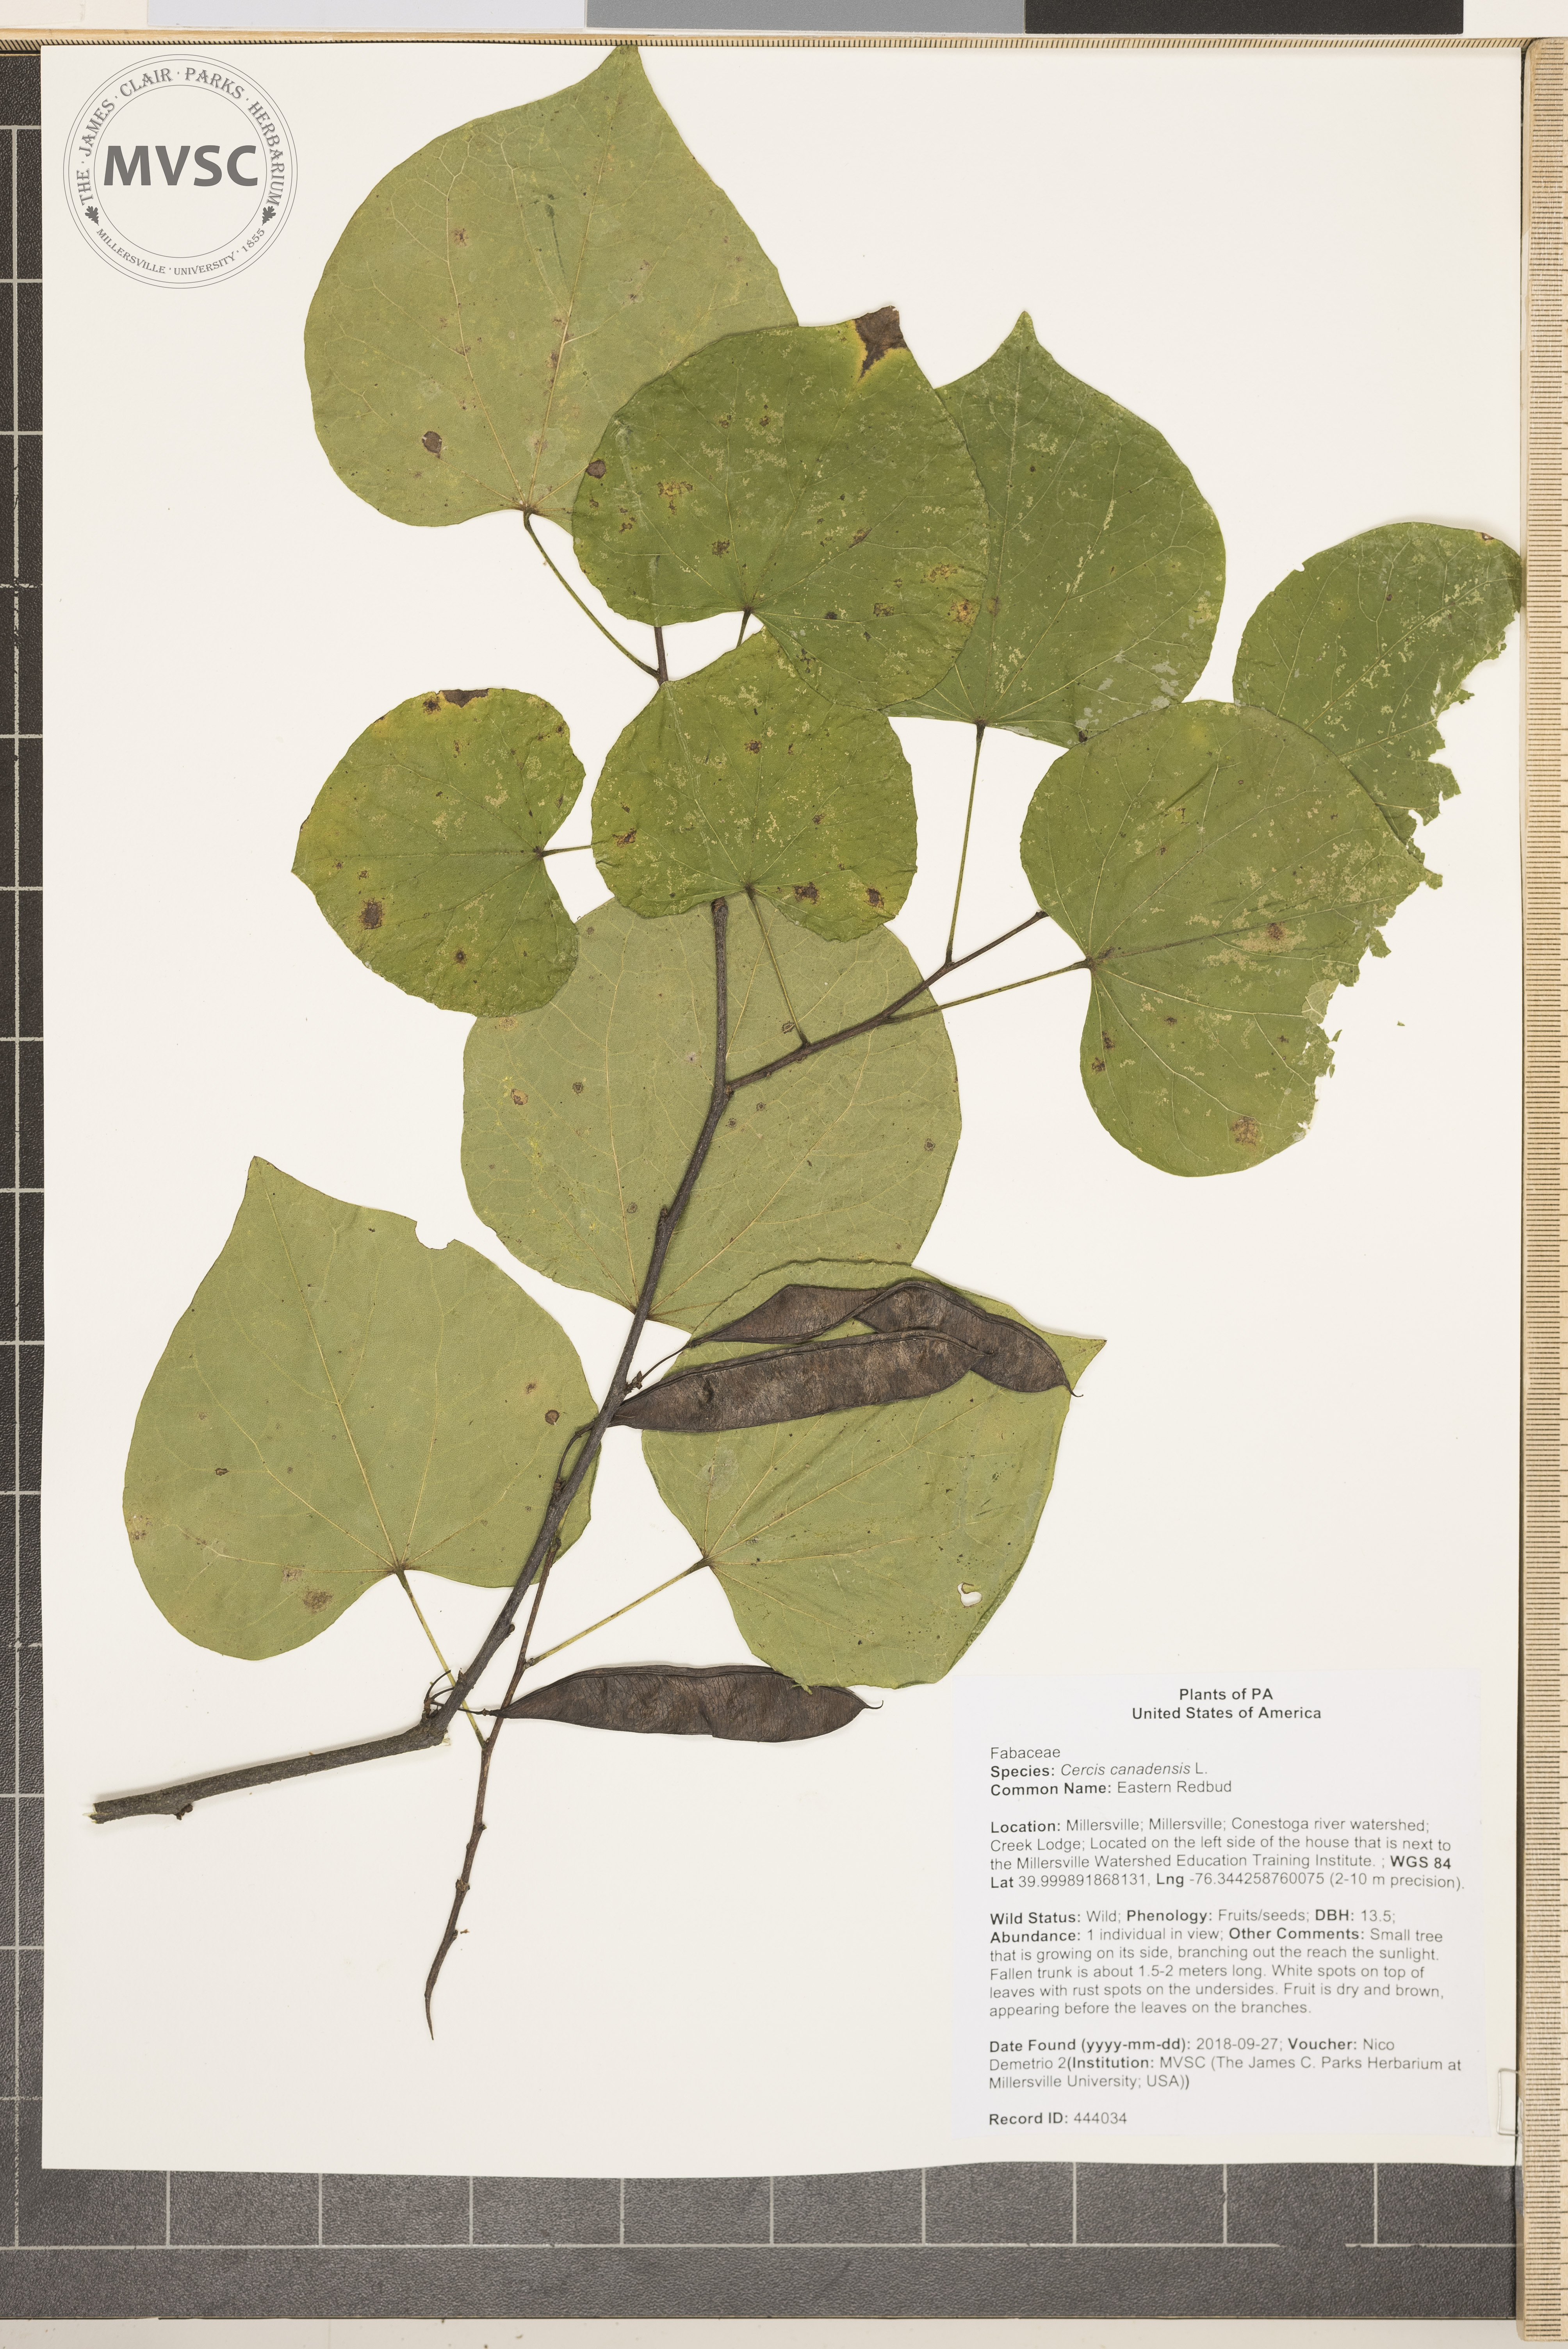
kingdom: Plantae
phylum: Tracheophyta
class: Magnoliopsida
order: Fabales
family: Fabaceae
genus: Cercis
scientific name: Cercis canadensis
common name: Eastern Redbud
